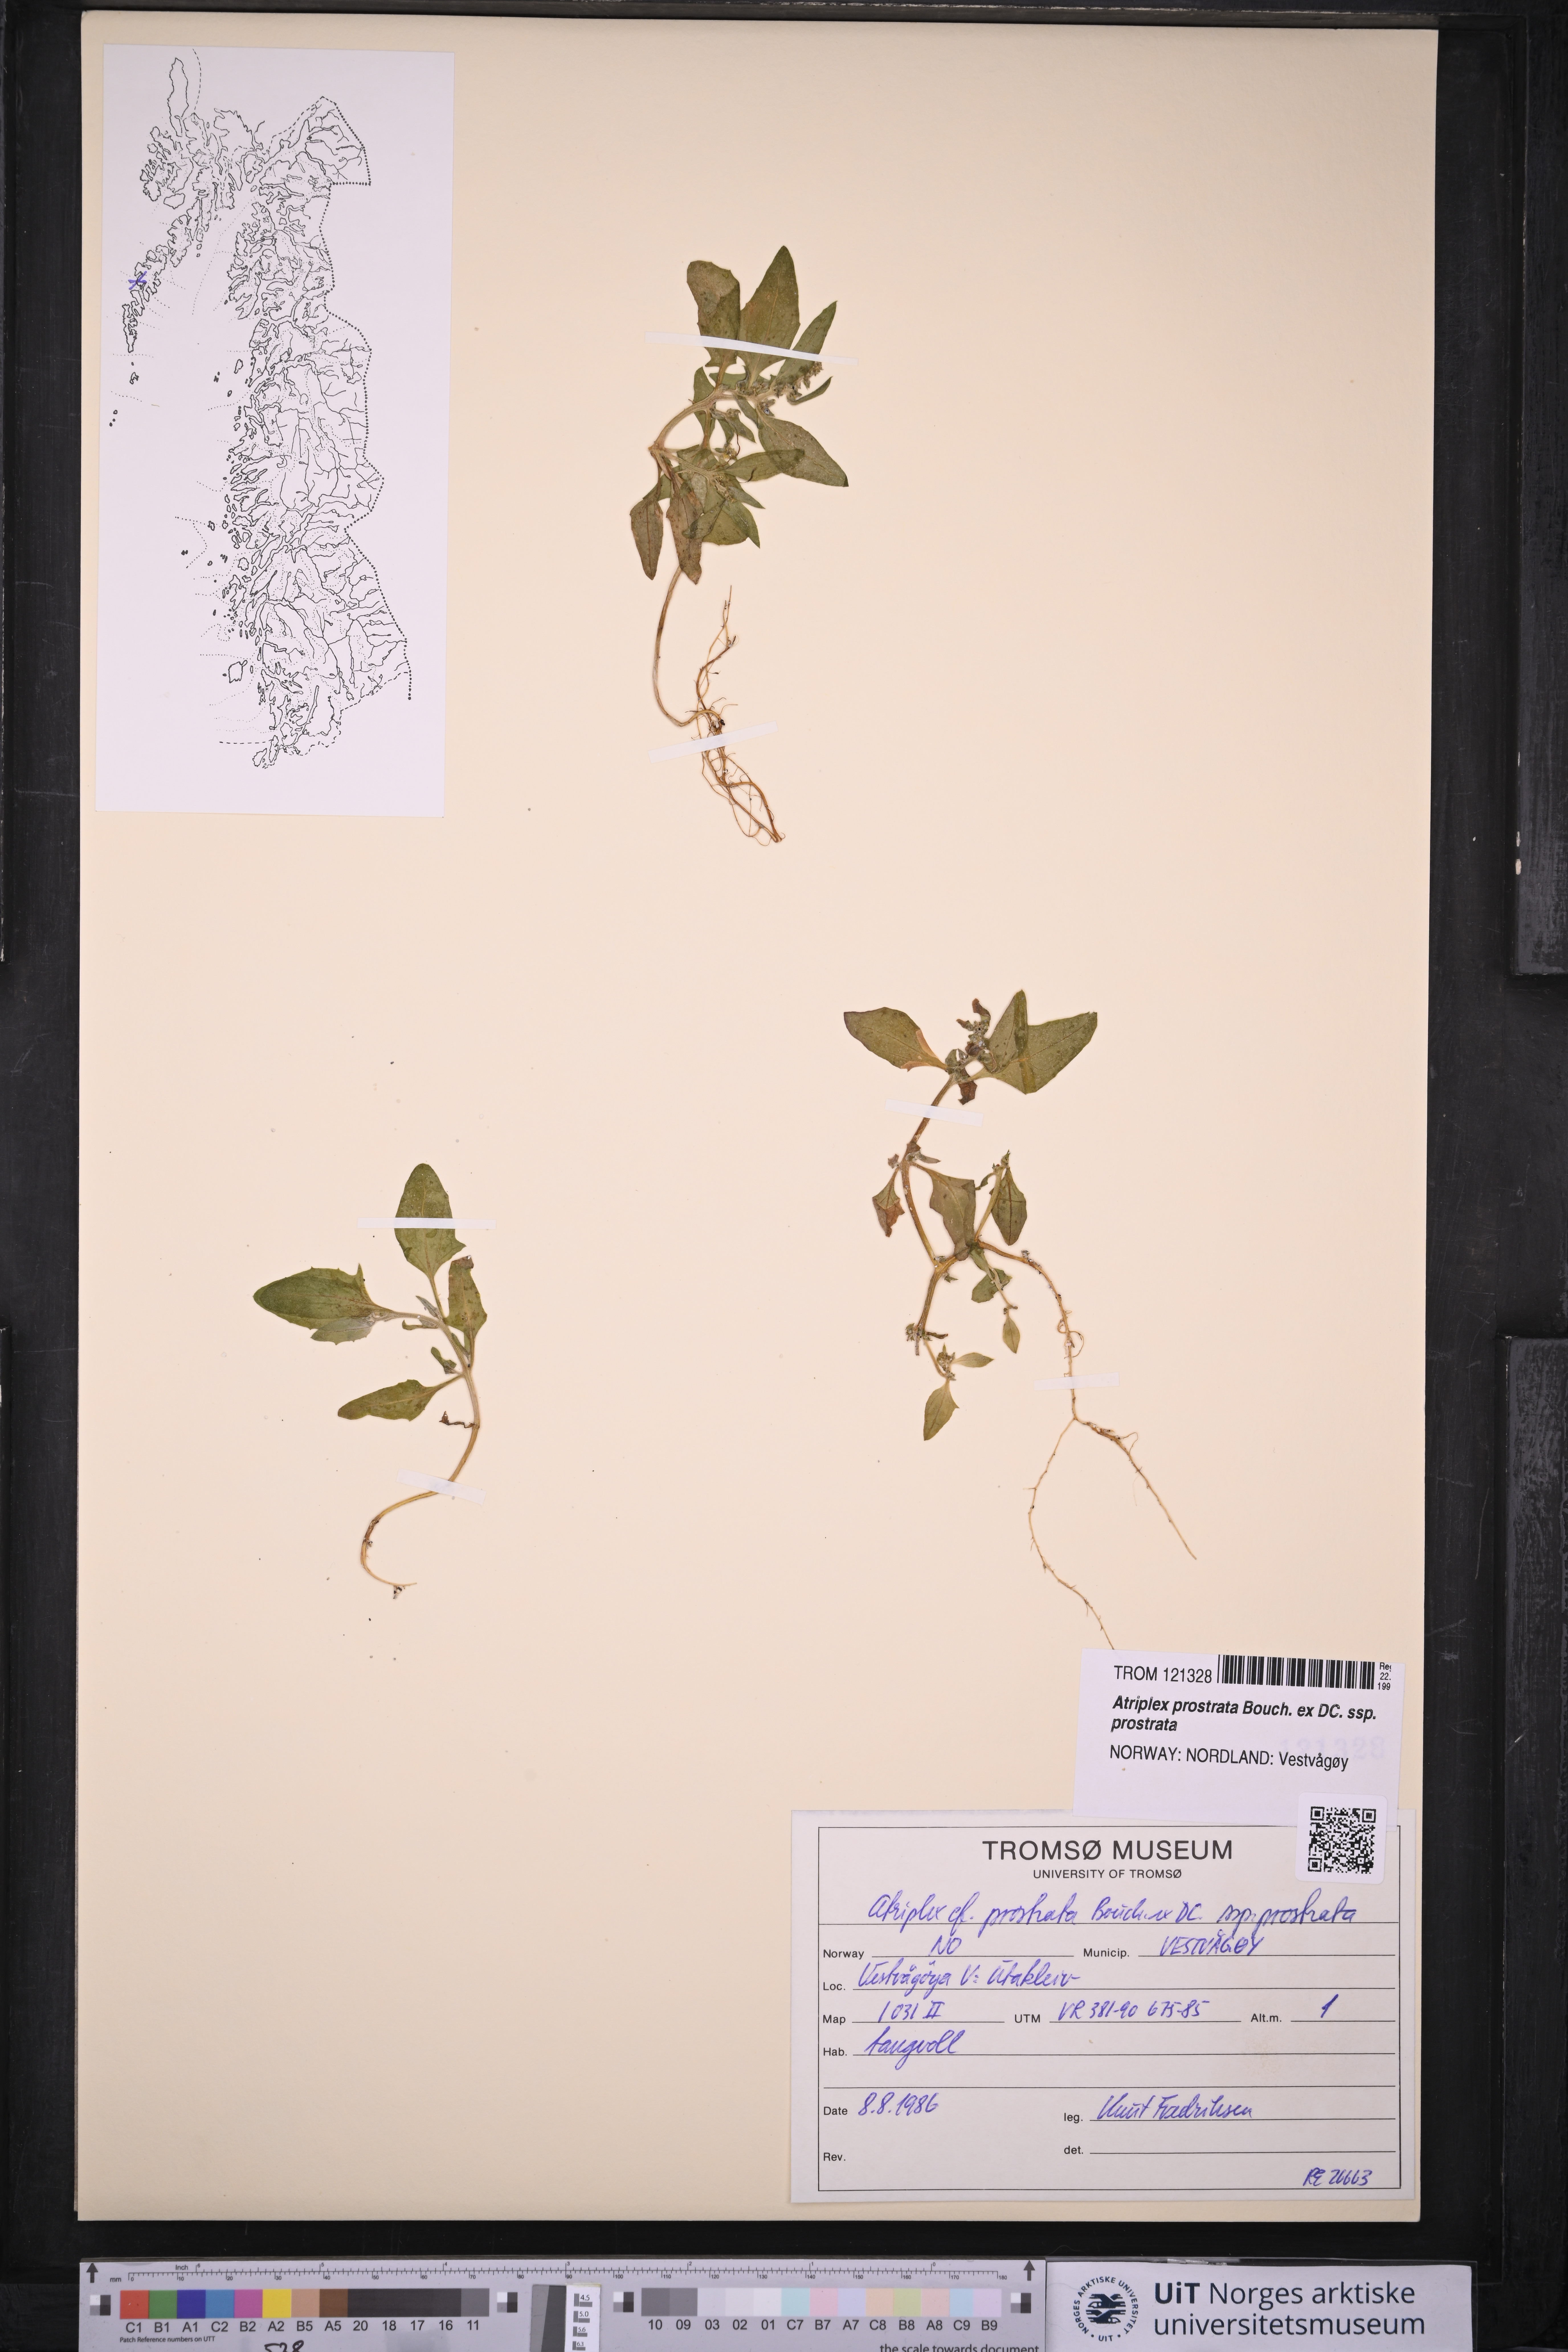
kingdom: Plantae
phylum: Tracheophyta
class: Magnoliopsida
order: Caryophyllales
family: Amaranthaceae
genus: Atriplex
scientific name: Atriplex prostrata
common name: Spear-leaved orache
